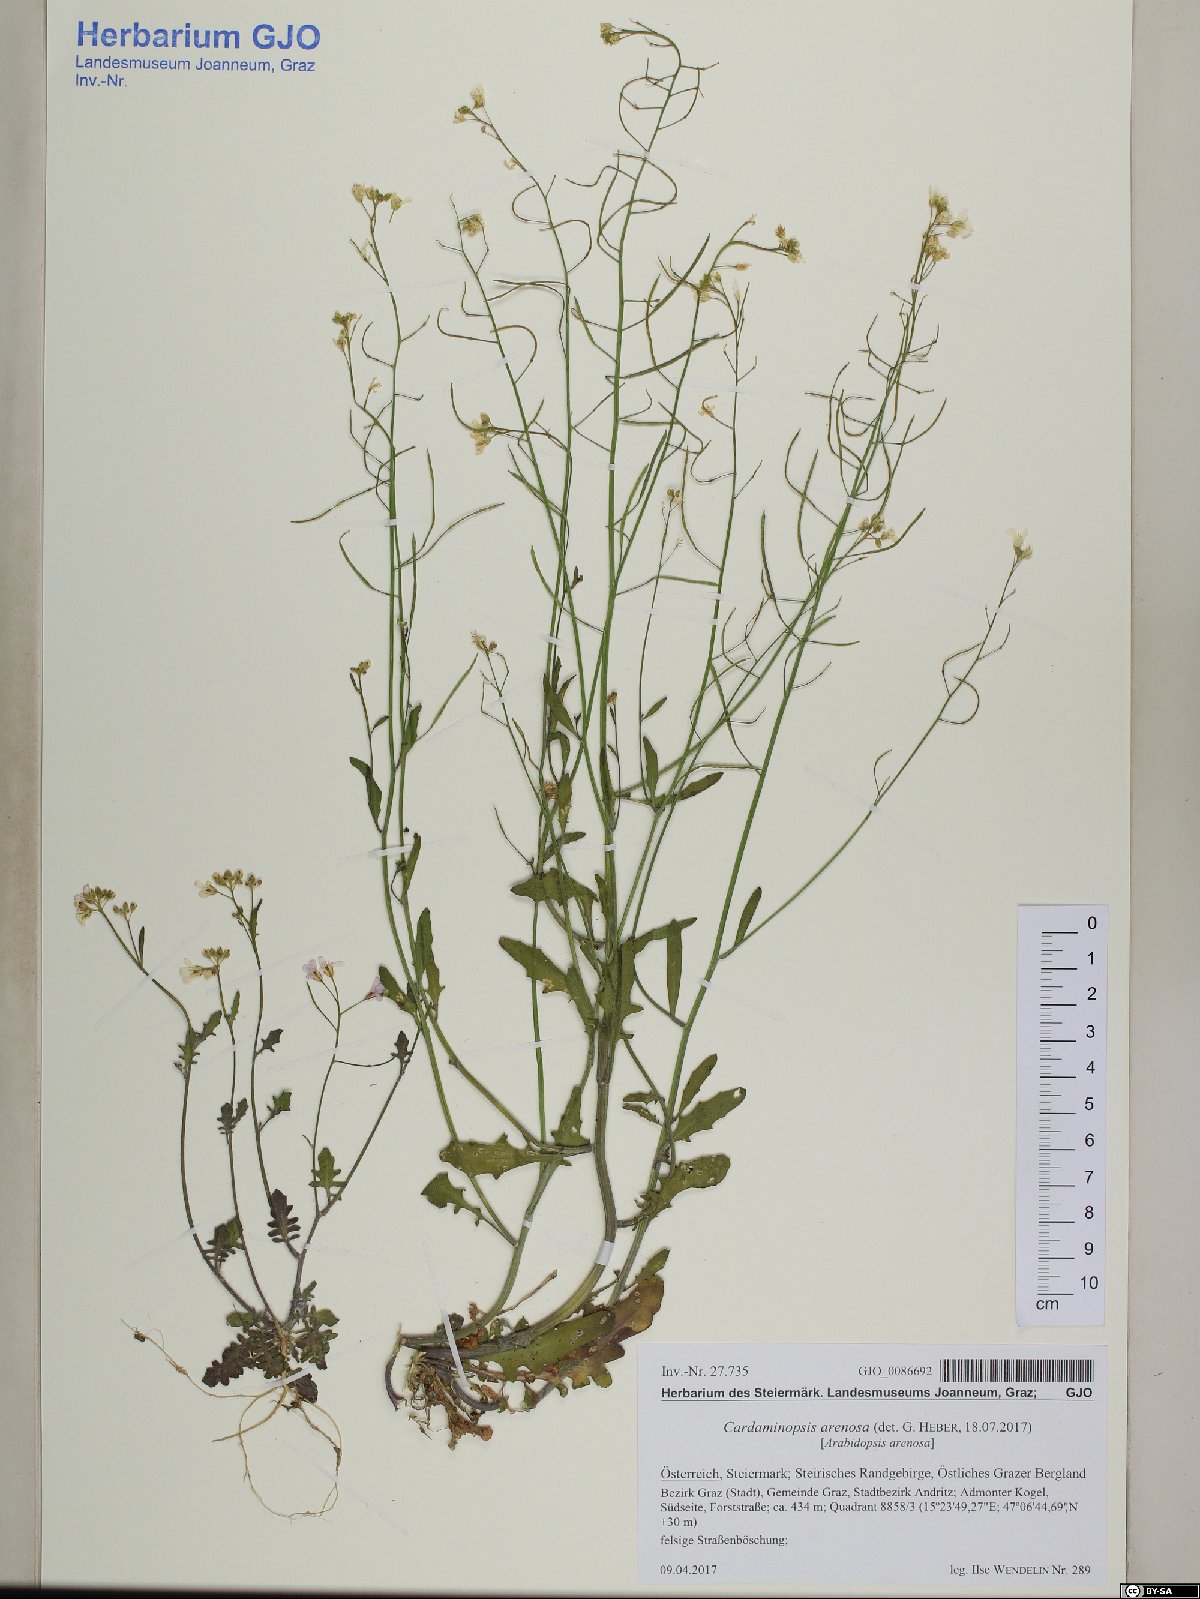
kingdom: Plantae
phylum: Tracheophyta
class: Magnoliopsida
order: Brassicales
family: Brassicaceae
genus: Arabidopsis
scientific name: Arabidopsis arenosa
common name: Sand rock-cress
